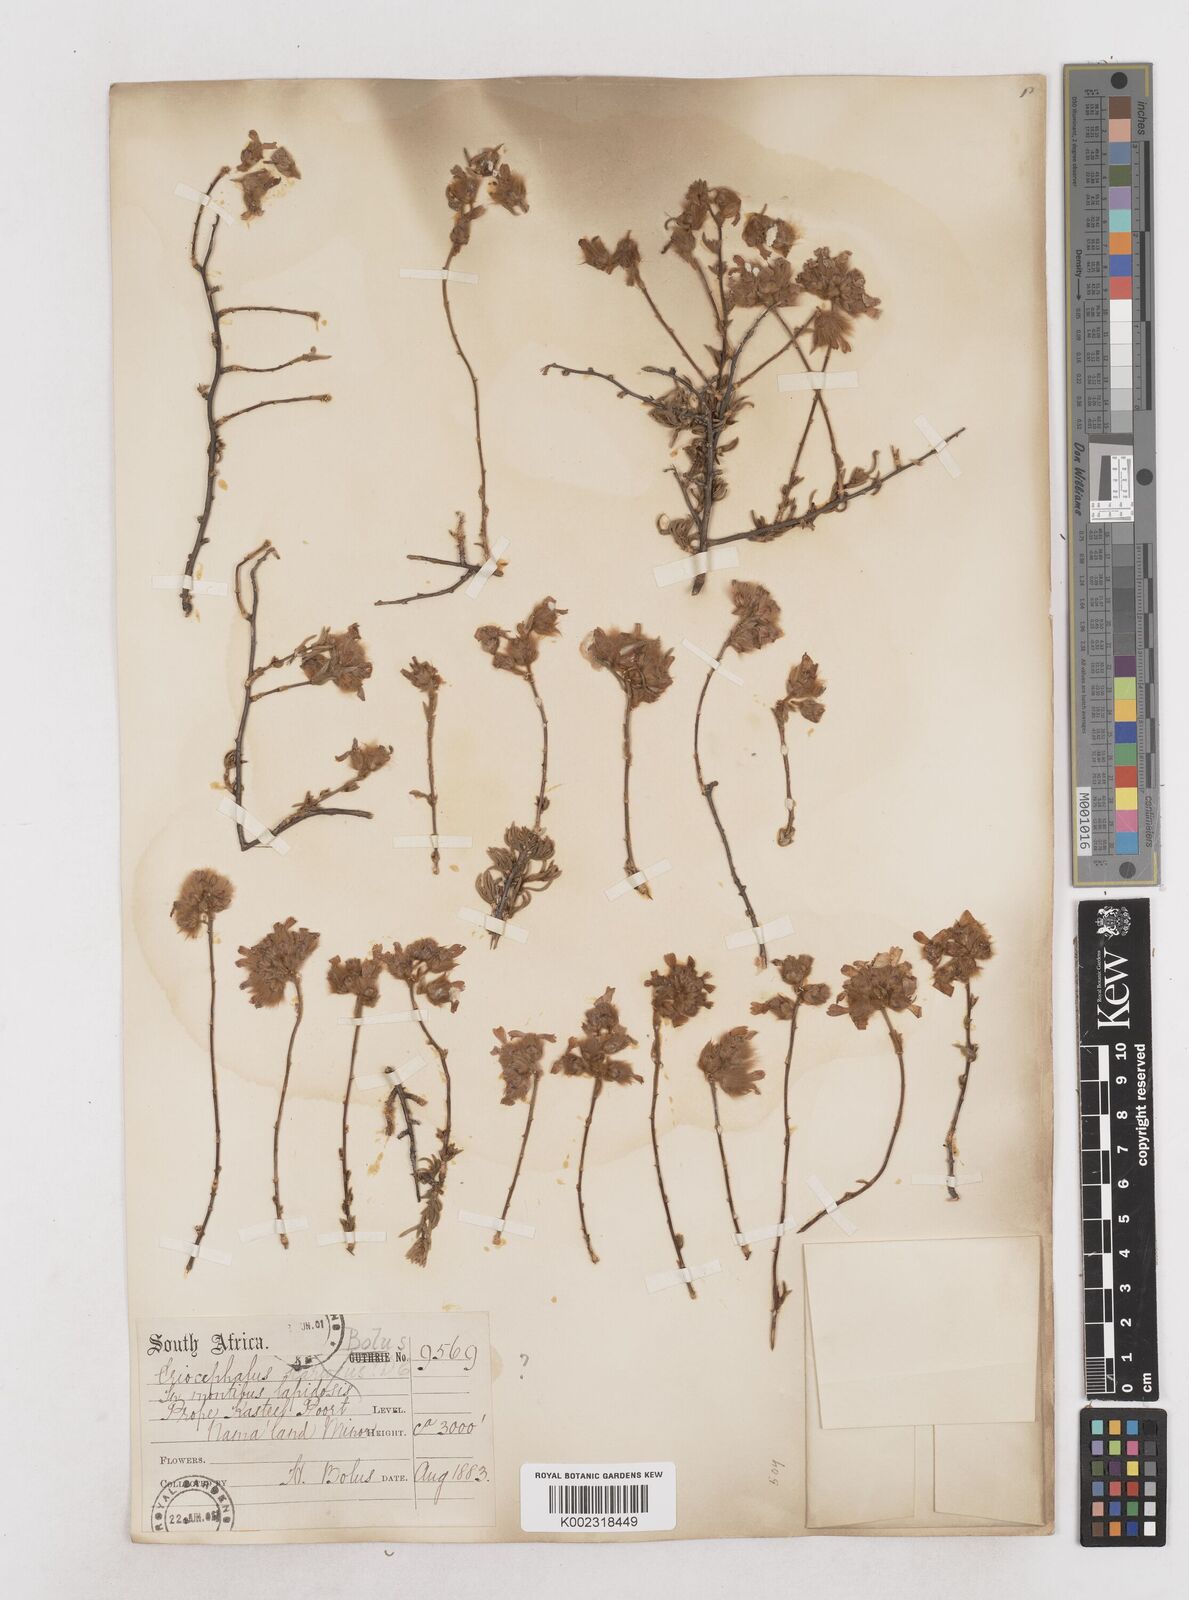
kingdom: Plantae
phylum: Tracheophyta
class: Magnoliopsida
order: Asterales
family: Asteraceae
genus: Eriocephalus
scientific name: Eriocephalus
